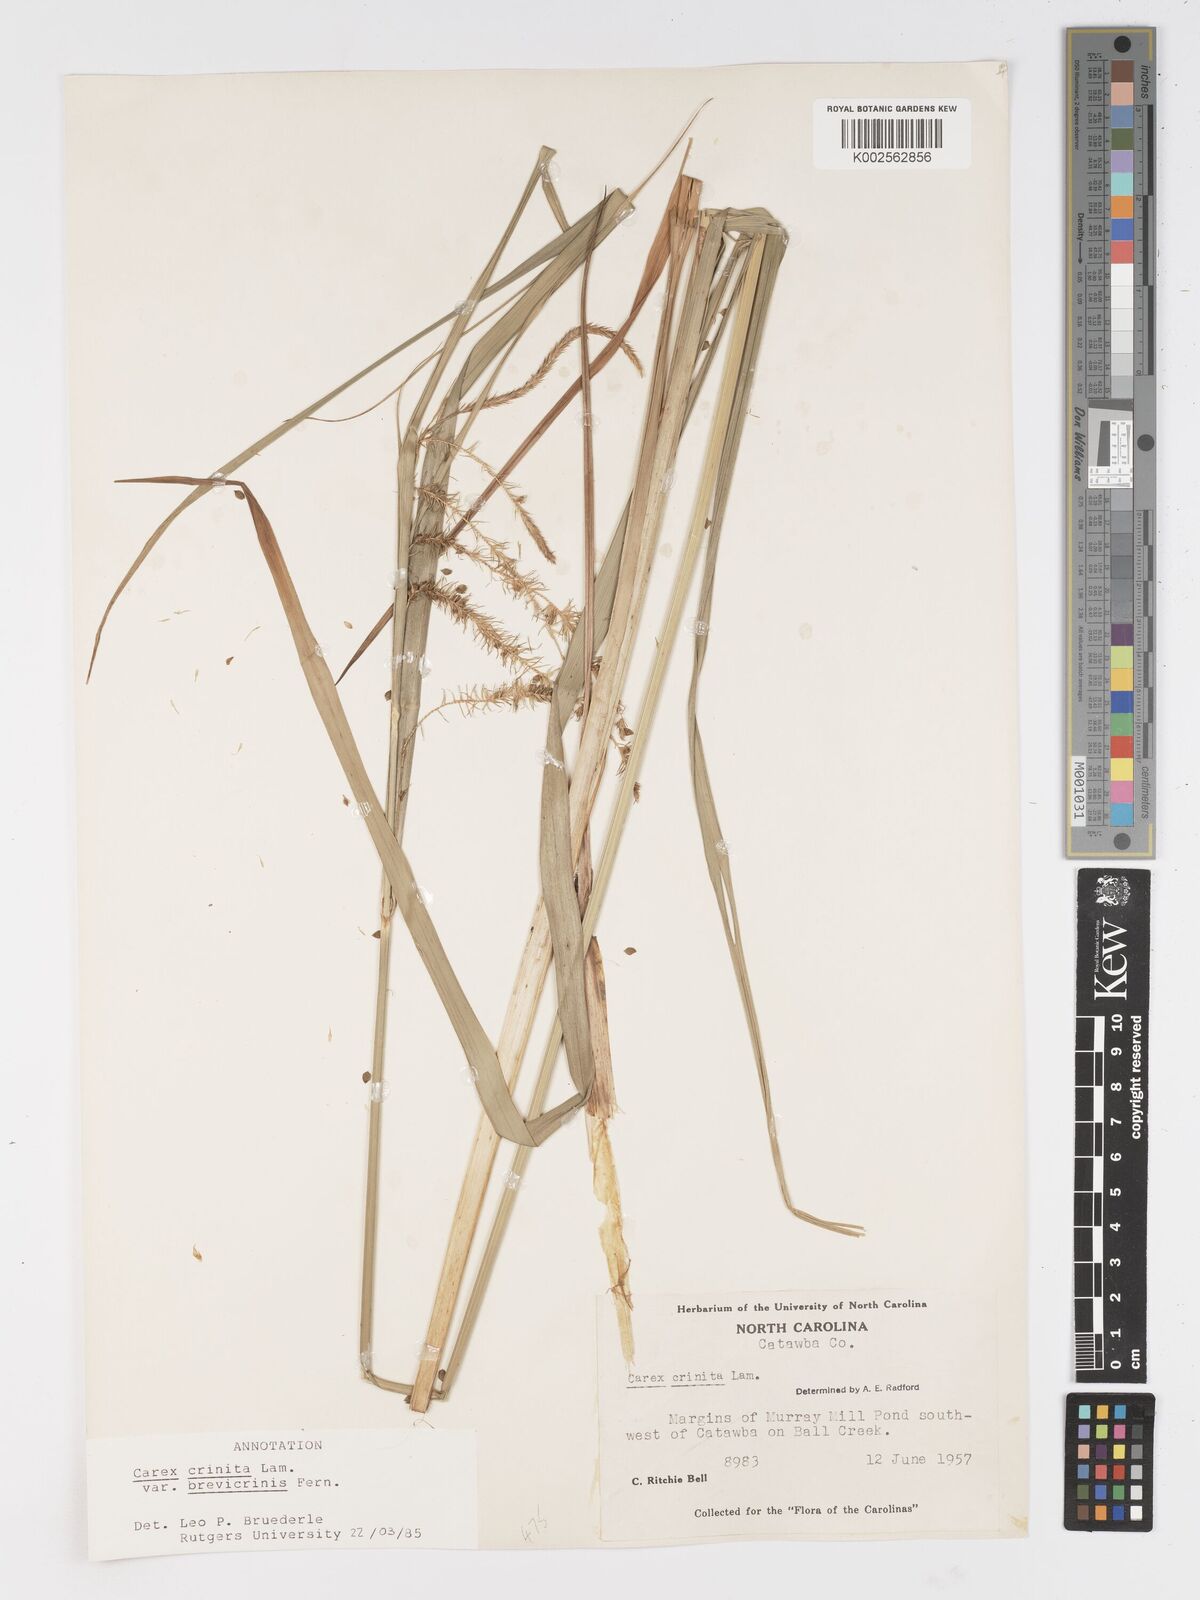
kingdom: Plantae
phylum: Tracheophyta
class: Liliopsida
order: Poales
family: Cyperaceae
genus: Carex
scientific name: Carex crinita
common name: Fringed sedge
